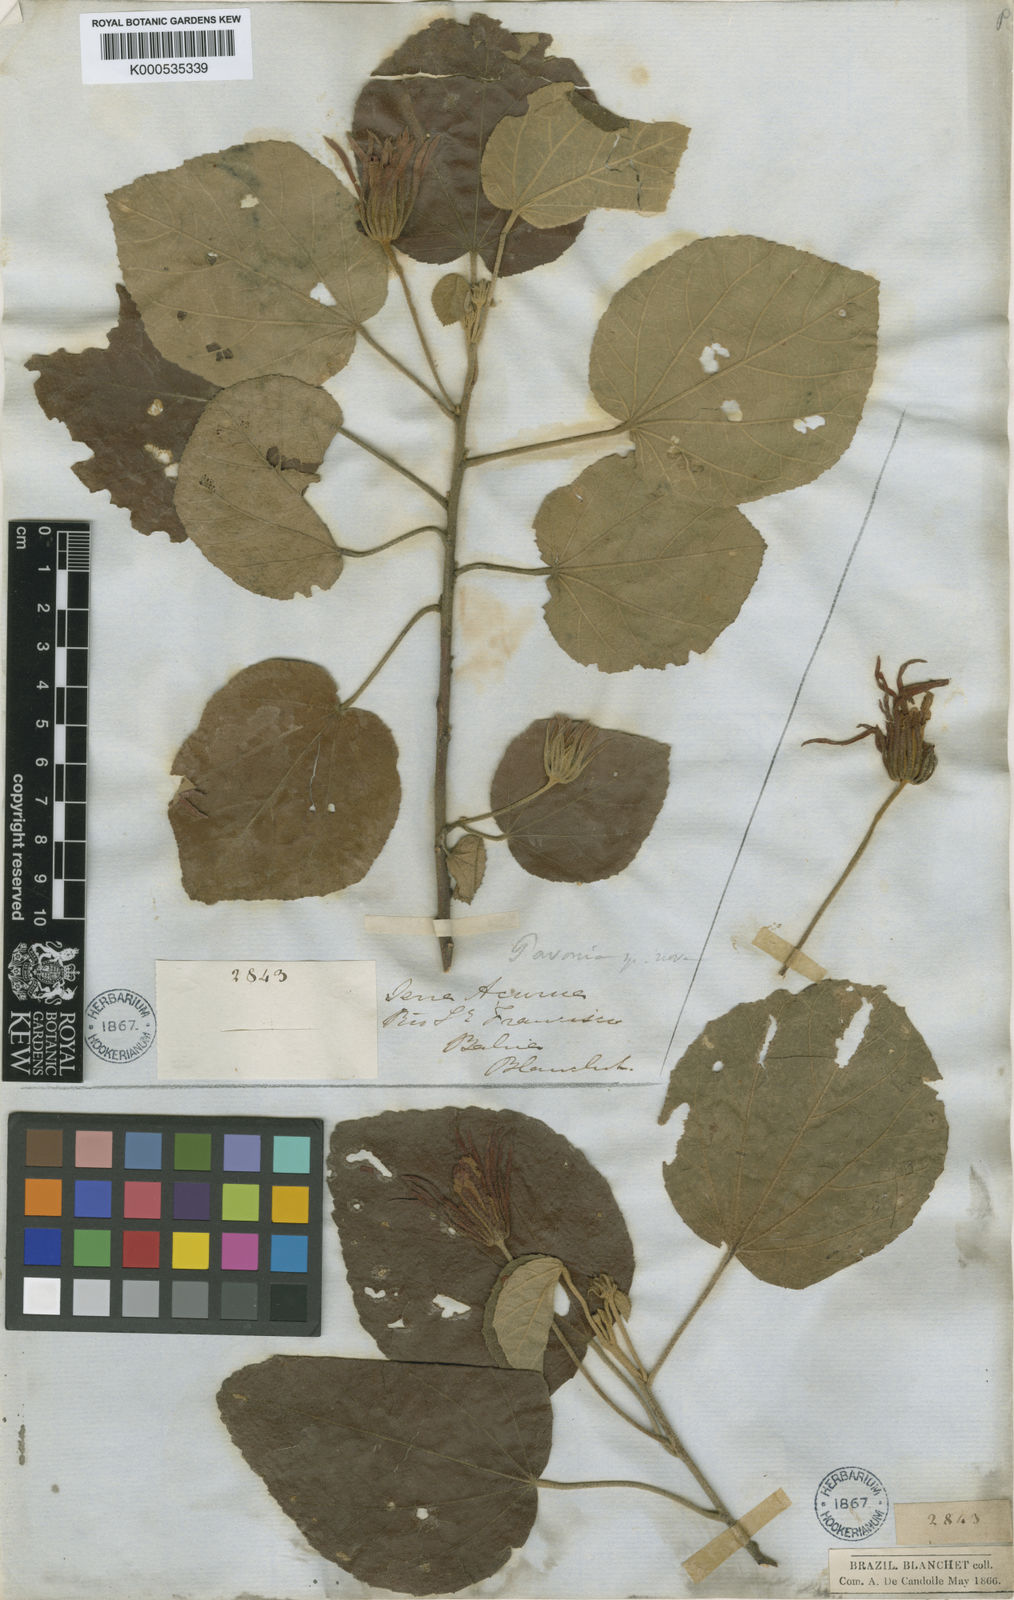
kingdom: Plantae
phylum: Tracheophyta
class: Magnoliopsida
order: Malvales
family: Malvaceae
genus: Pavonia
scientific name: Pavonia
